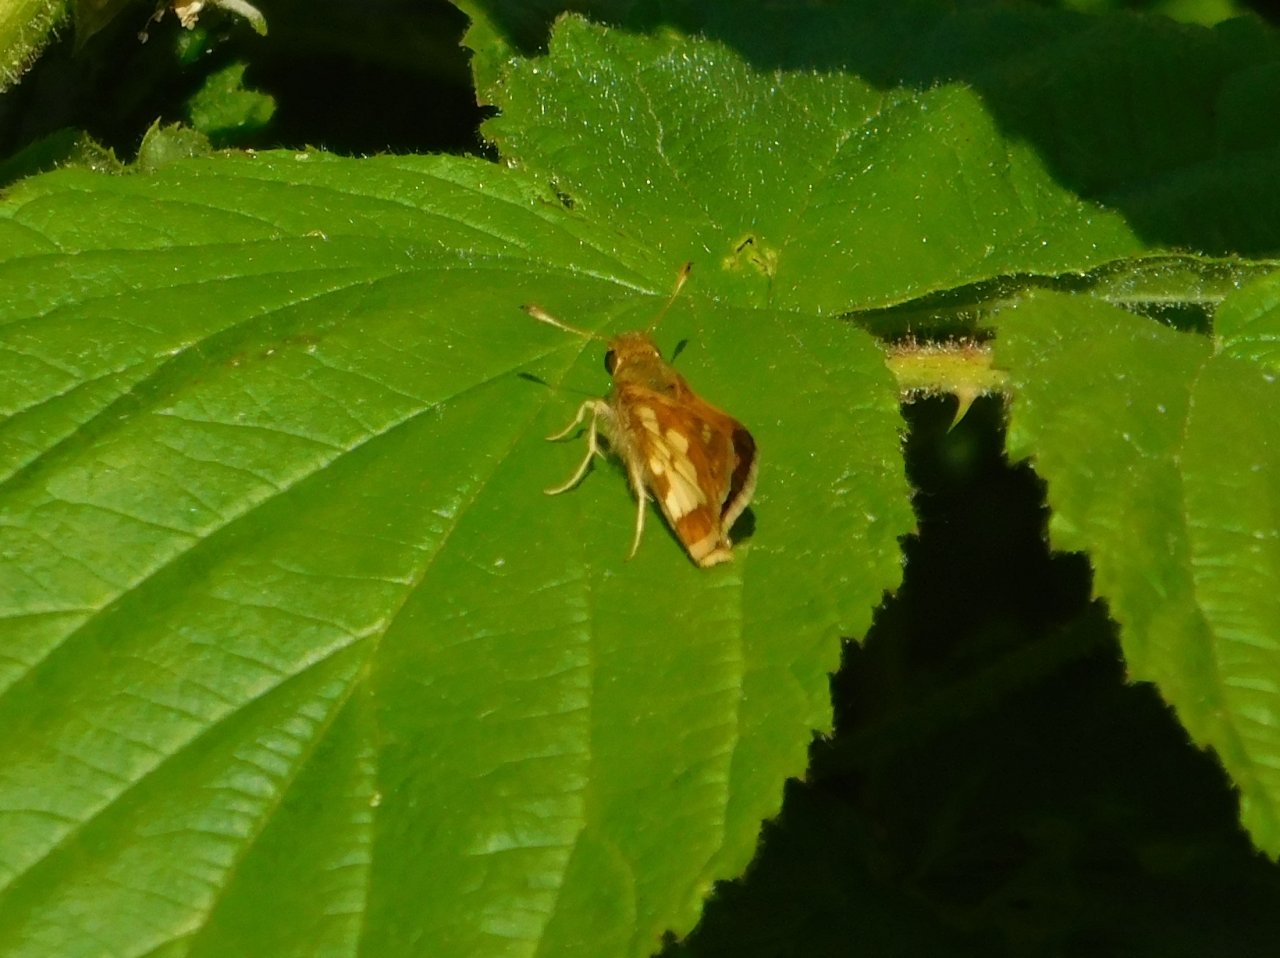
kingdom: Animalia
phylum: Arthropoda
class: Insecta
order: Lepidoptera
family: Hesperiidae
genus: Polites
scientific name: Polites coras
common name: Peck's Skipper
